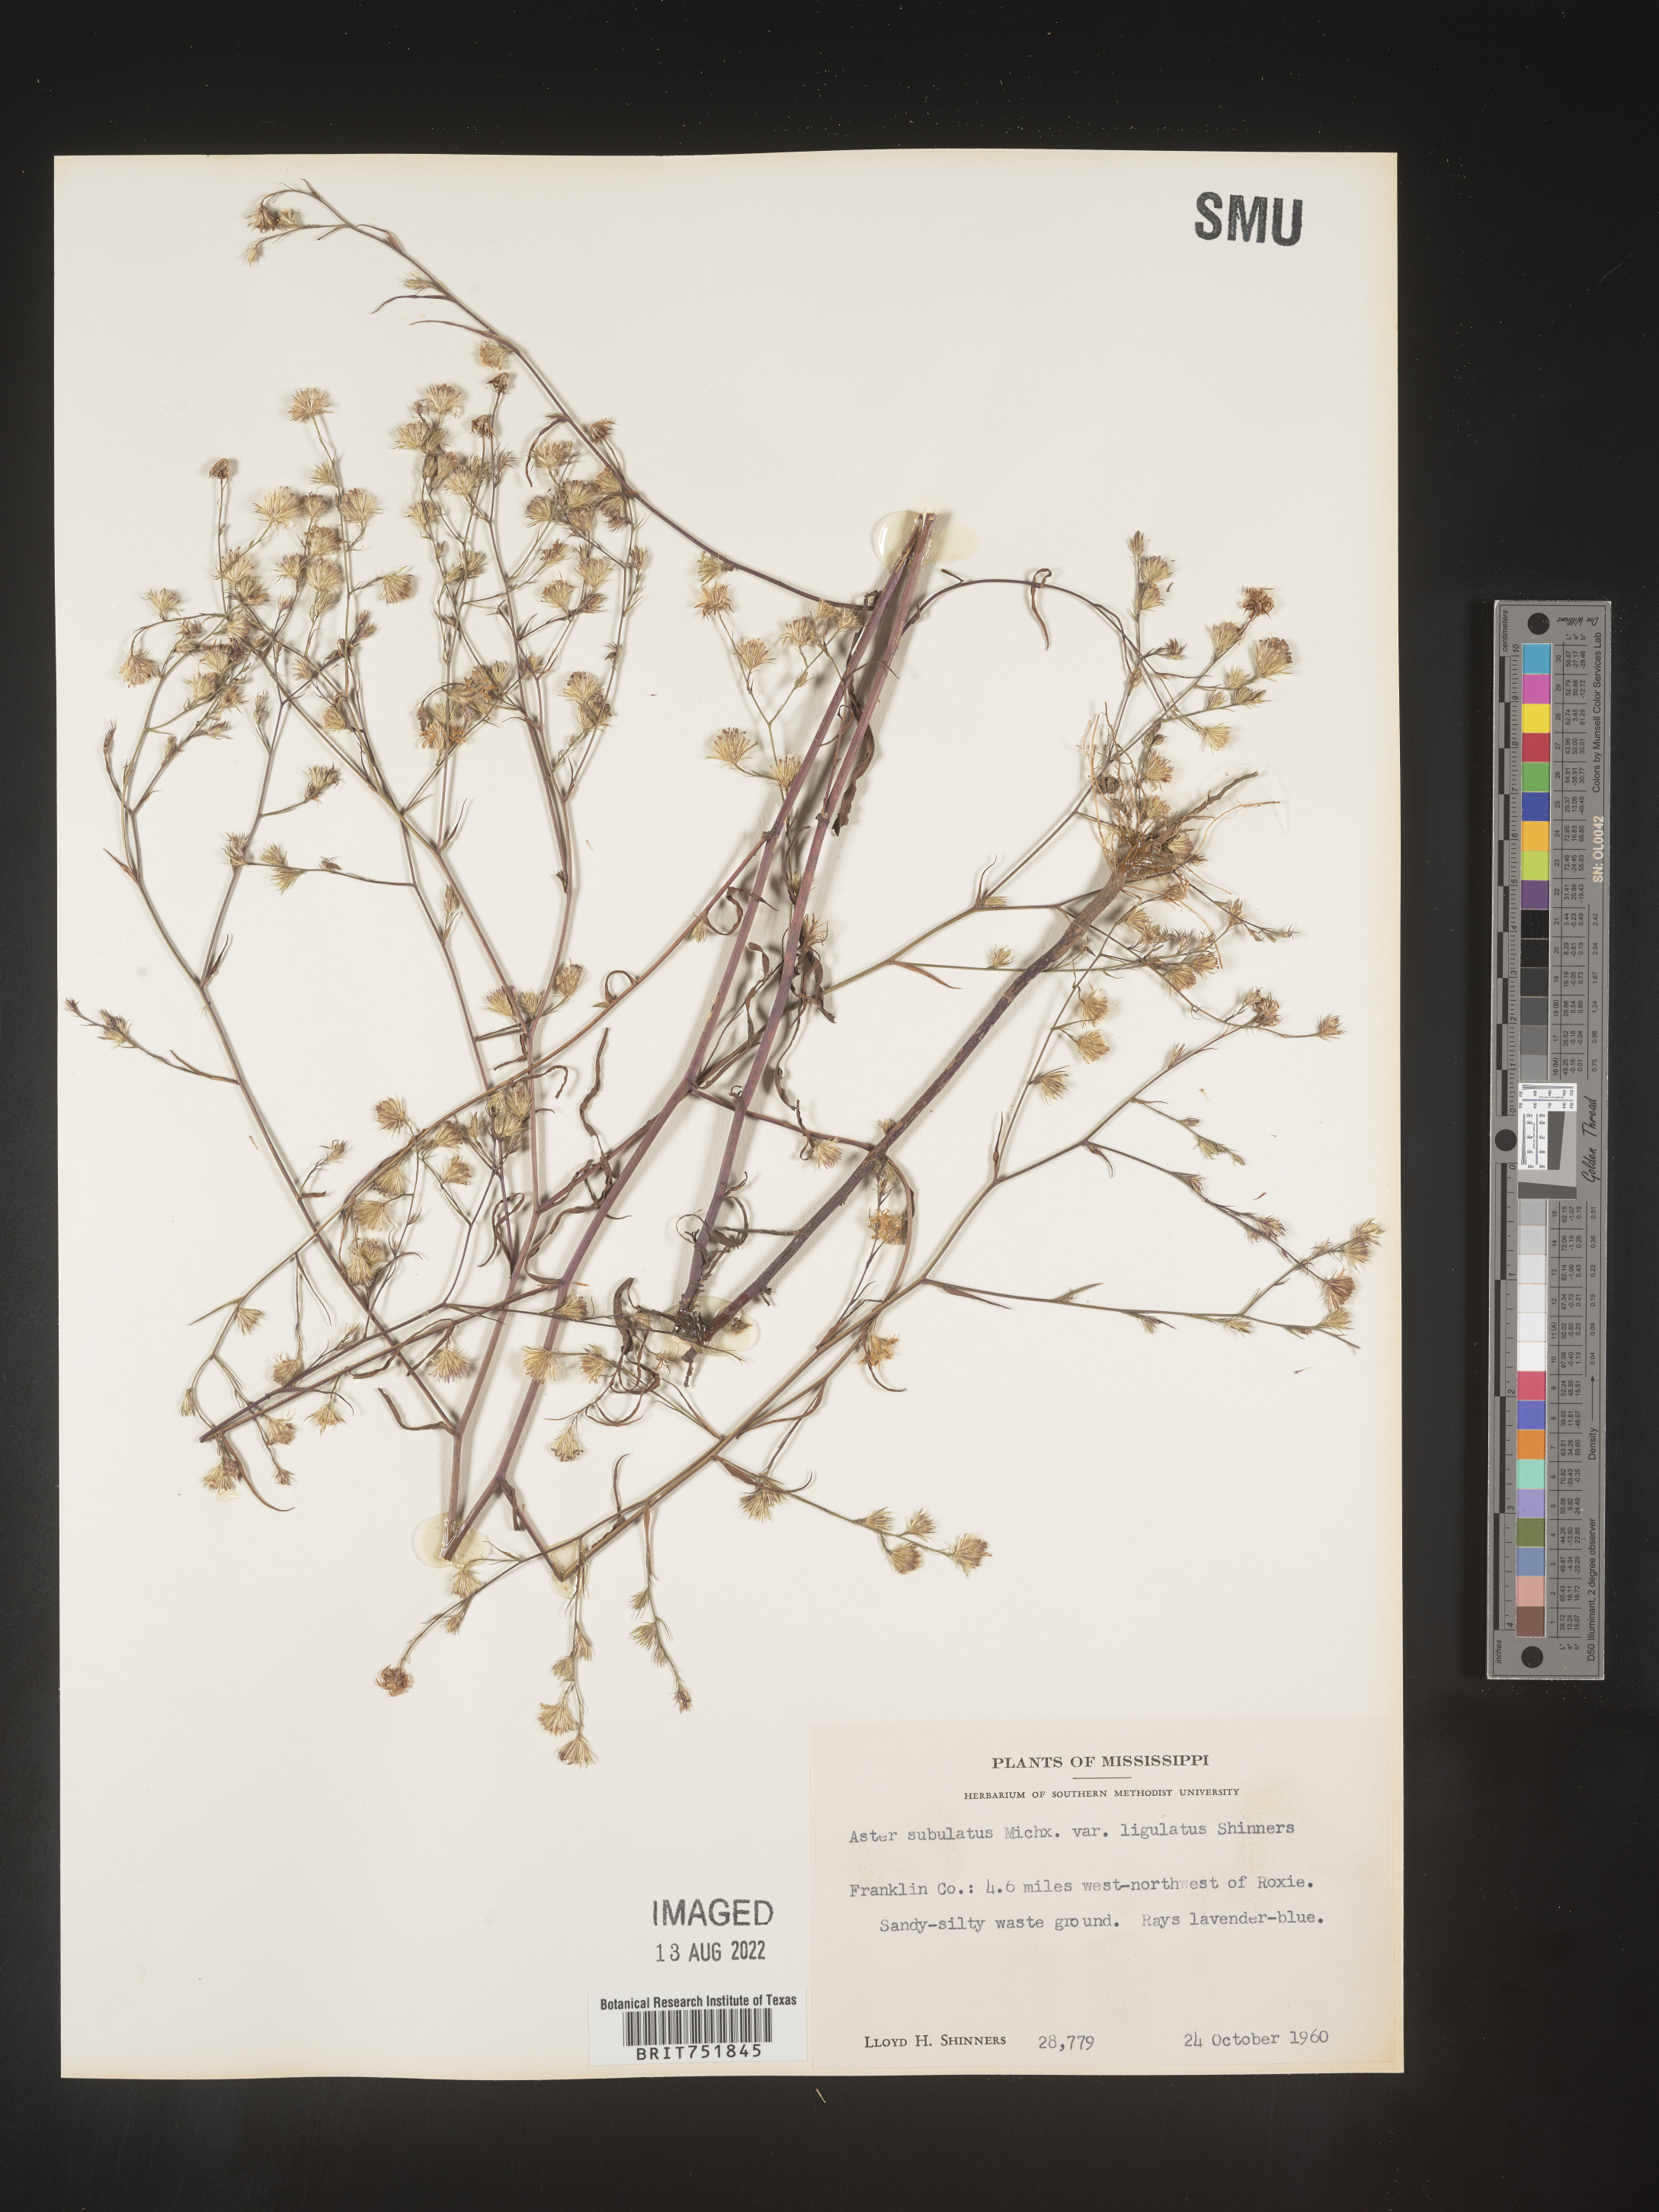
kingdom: Plantae
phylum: Tracheophyta
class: Magnoliopsida
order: Asterales
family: Asteraceae
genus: Symphyotrichum
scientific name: Symphyotrichum divaricatum
